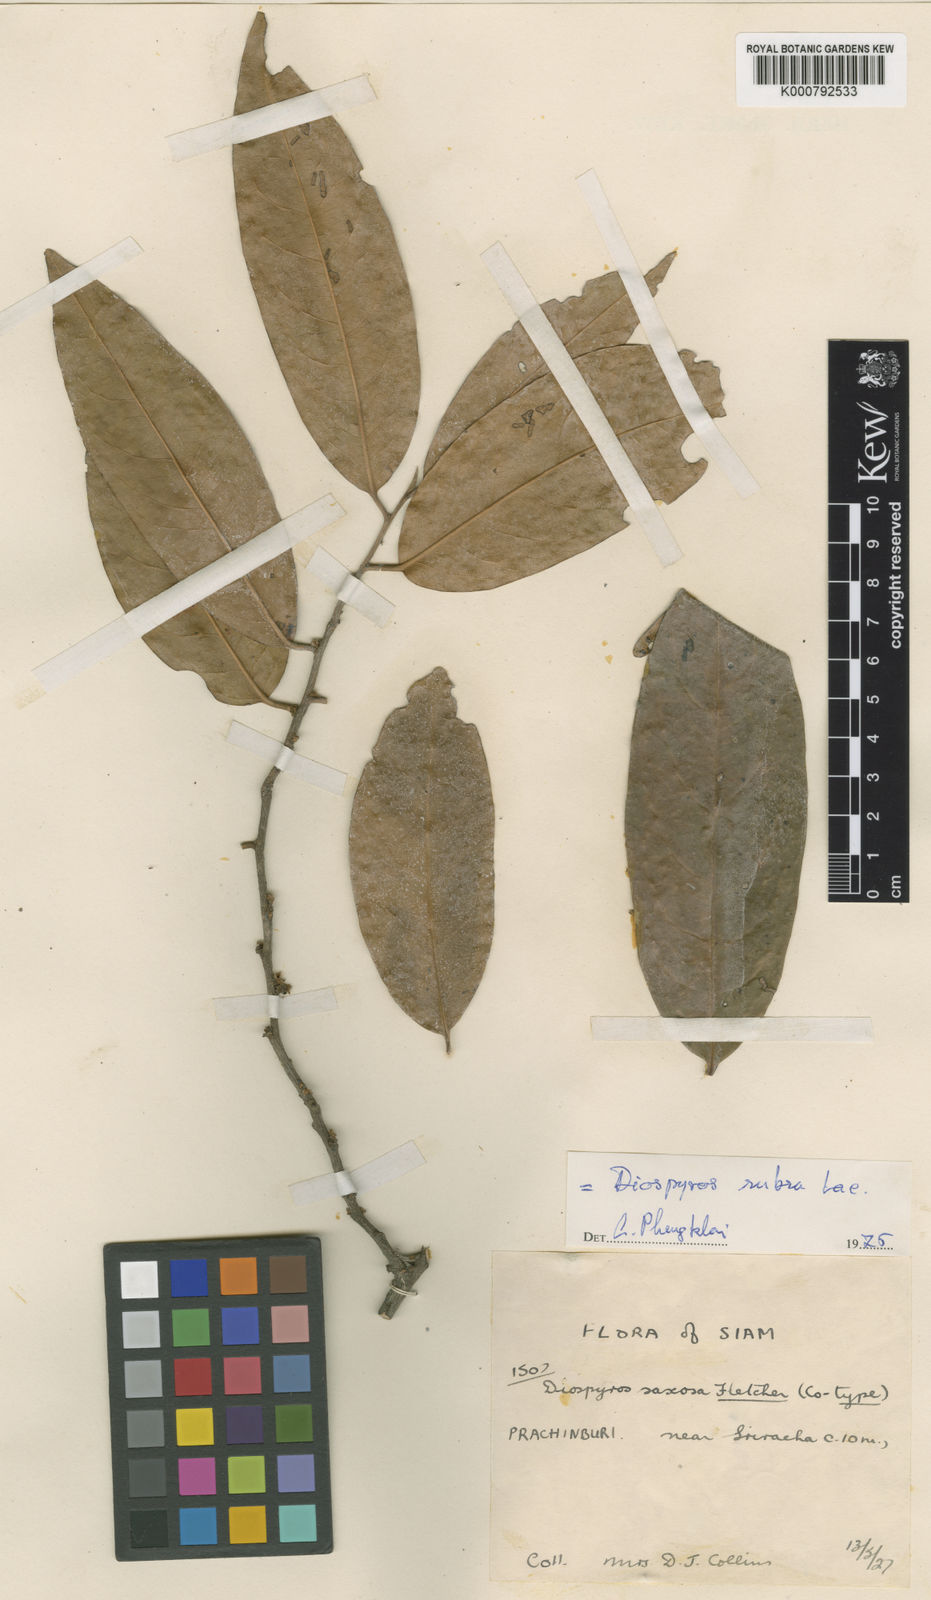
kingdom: Plantae
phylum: Tracheophyta
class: Magnoliopsida
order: Ericales
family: Ebenaceae
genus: Diospyros
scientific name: Diospyros defectrix
